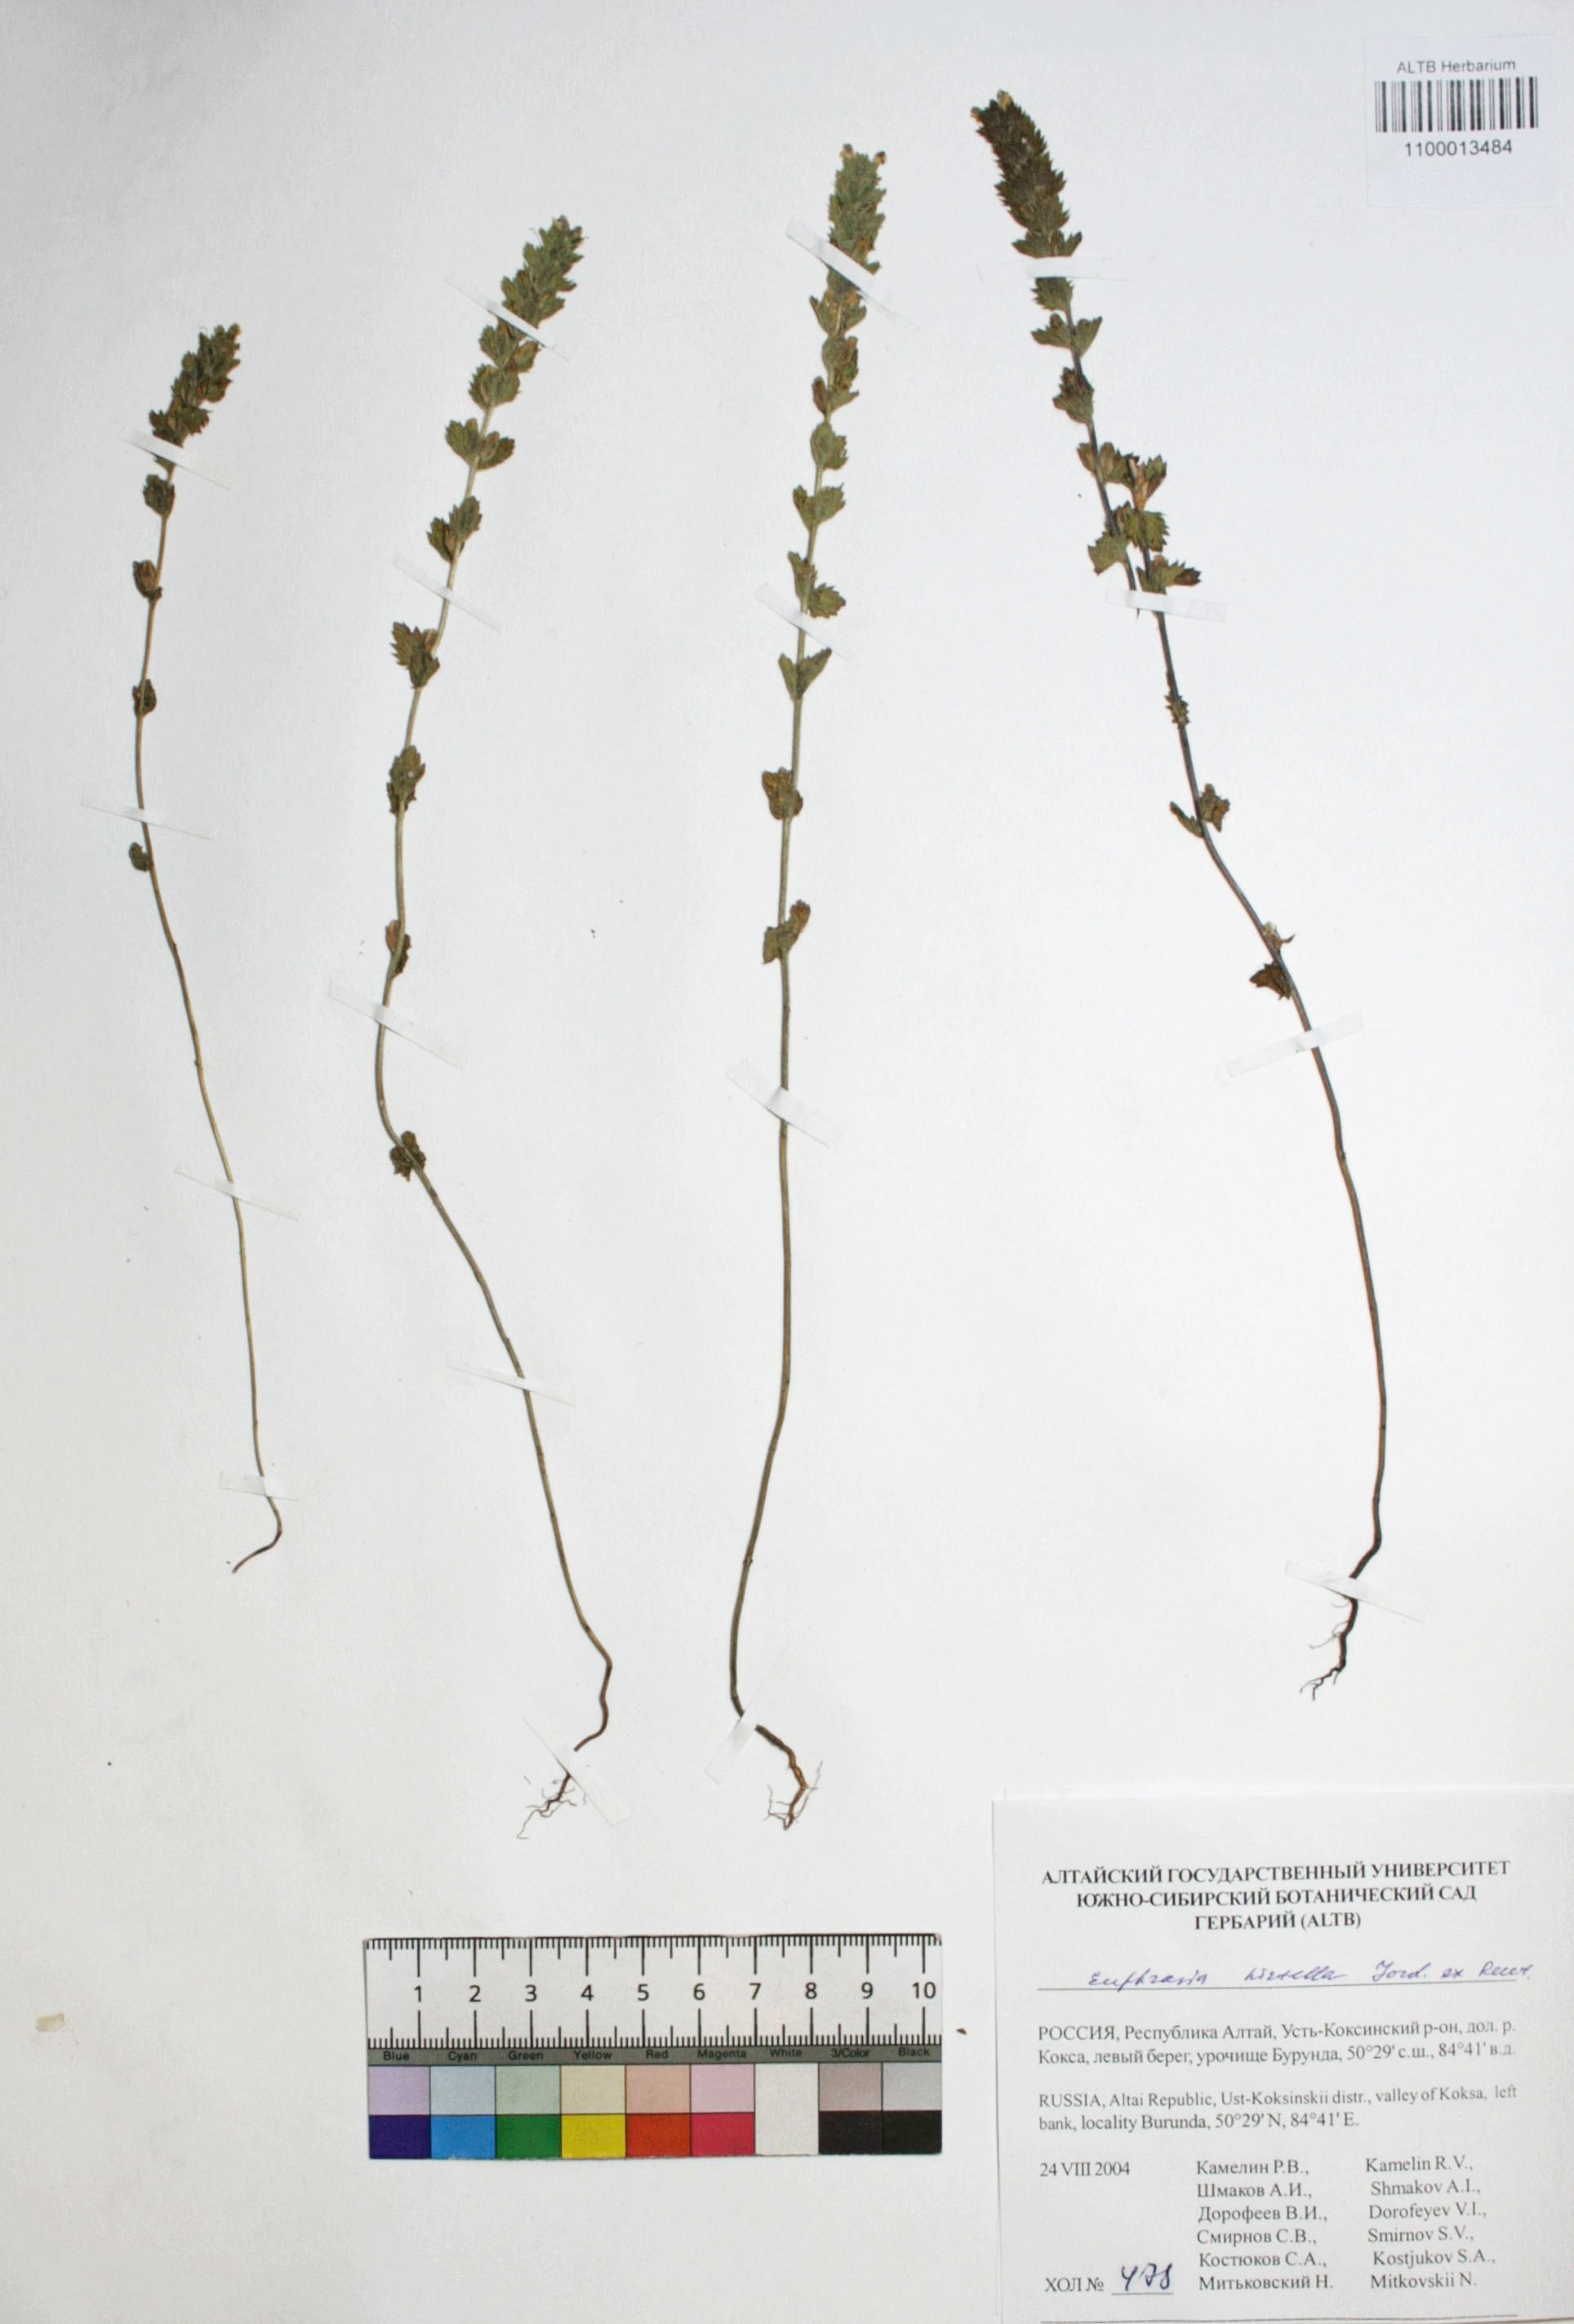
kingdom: Plantae
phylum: Tracheophyta
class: Magnoliopsida
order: Lamiales
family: Orobanchaceae
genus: Euphrasia
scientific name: Euphrasia hirtella
